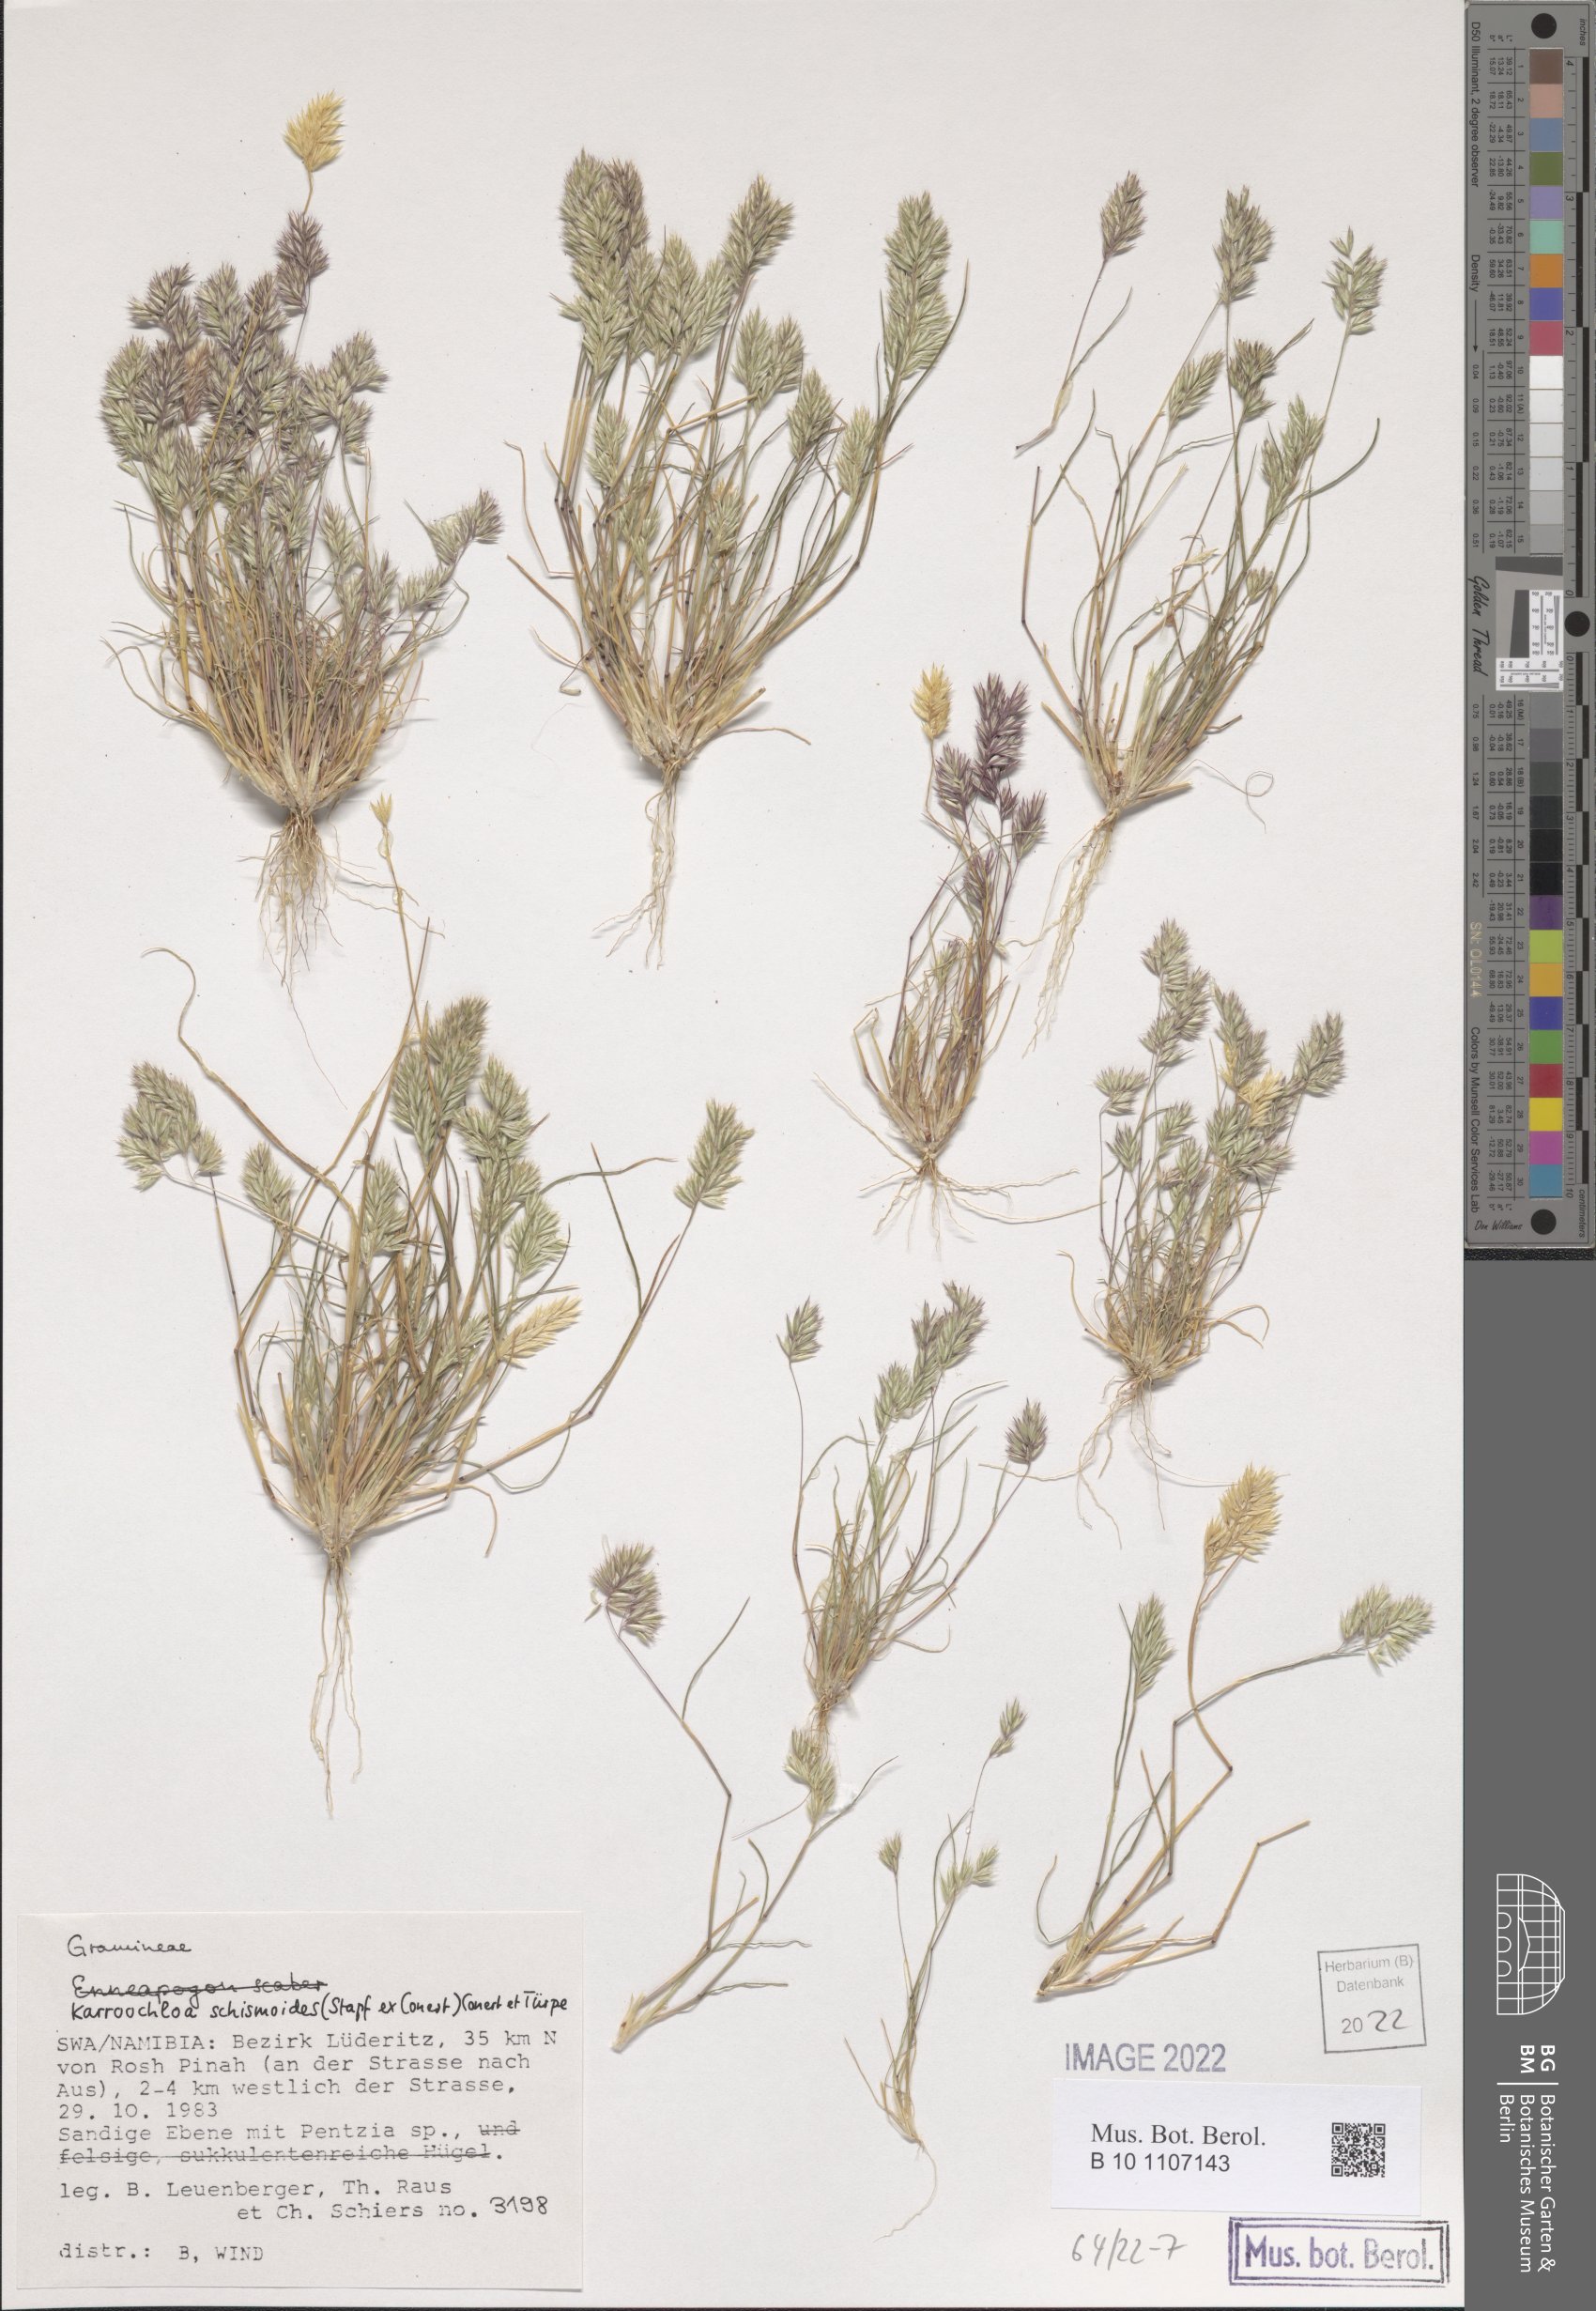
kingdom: Plantae
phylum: Tracheophyta
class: Liliopsida
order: Poales
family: Poaceae
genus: Schismus
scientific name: Schismus schismoides
